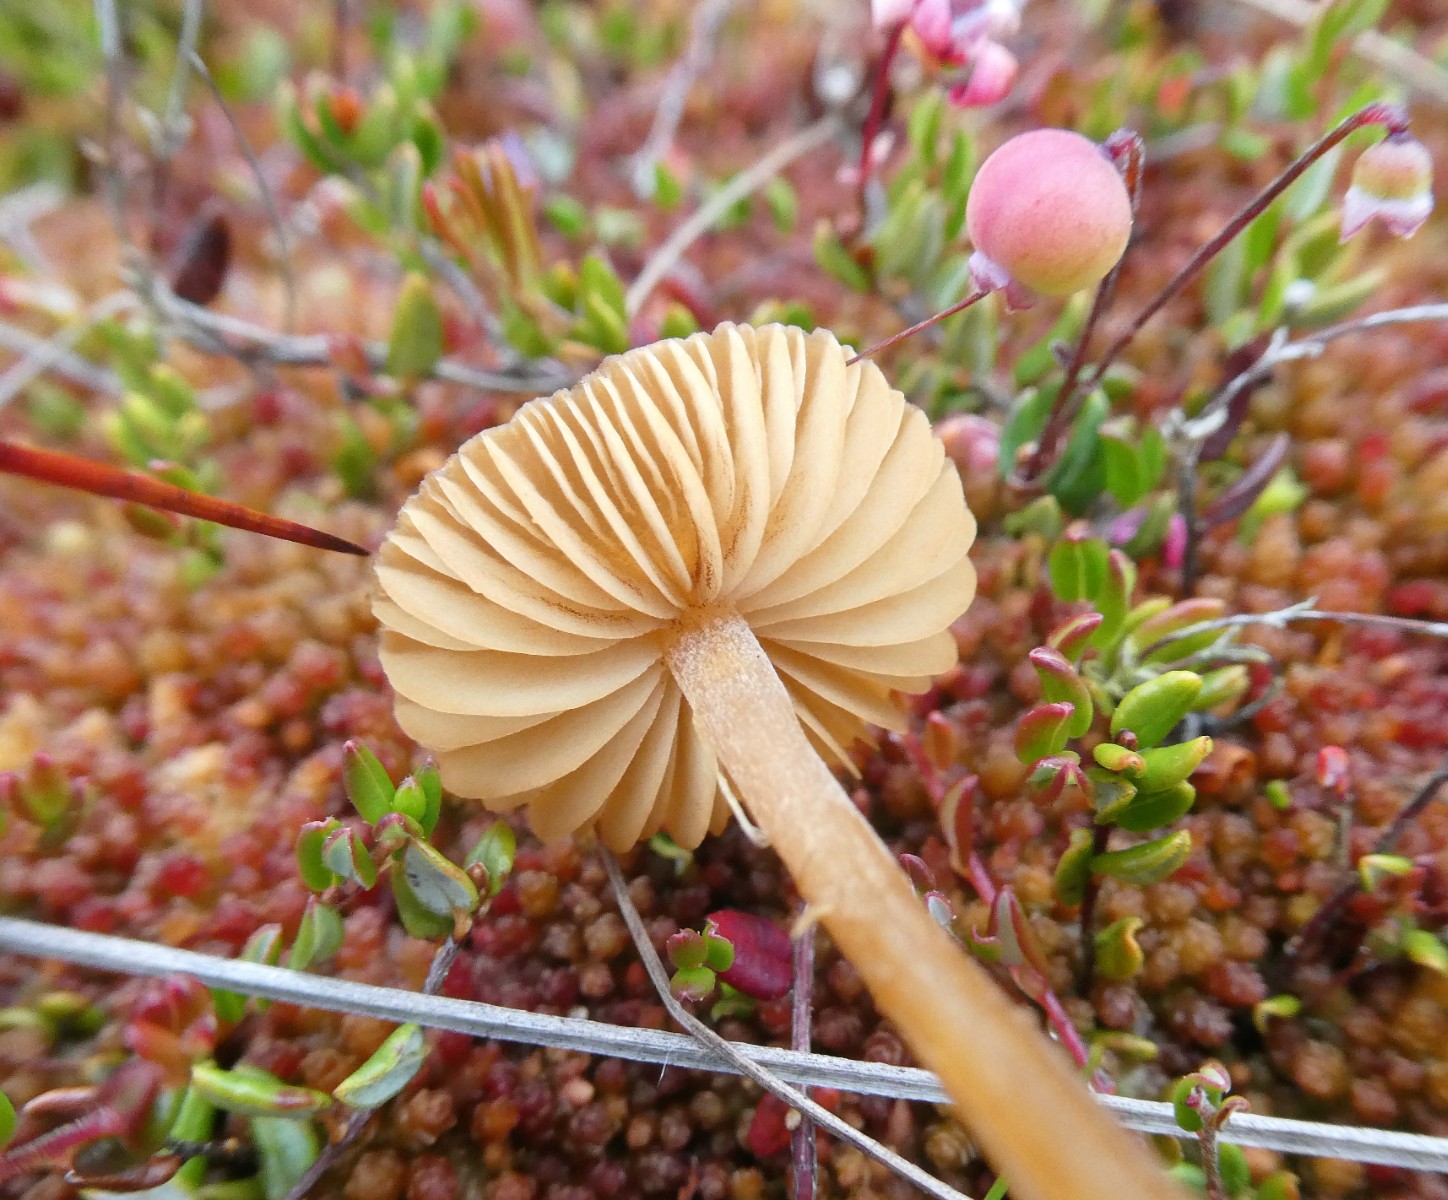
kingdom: Fungi
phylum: Basidiomycota
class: Agaricomycetes
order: Agaricales
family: Hymenogastraceae
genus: Galerina
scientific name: Galerina hybrida
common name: hængesæk-hjelmhat
